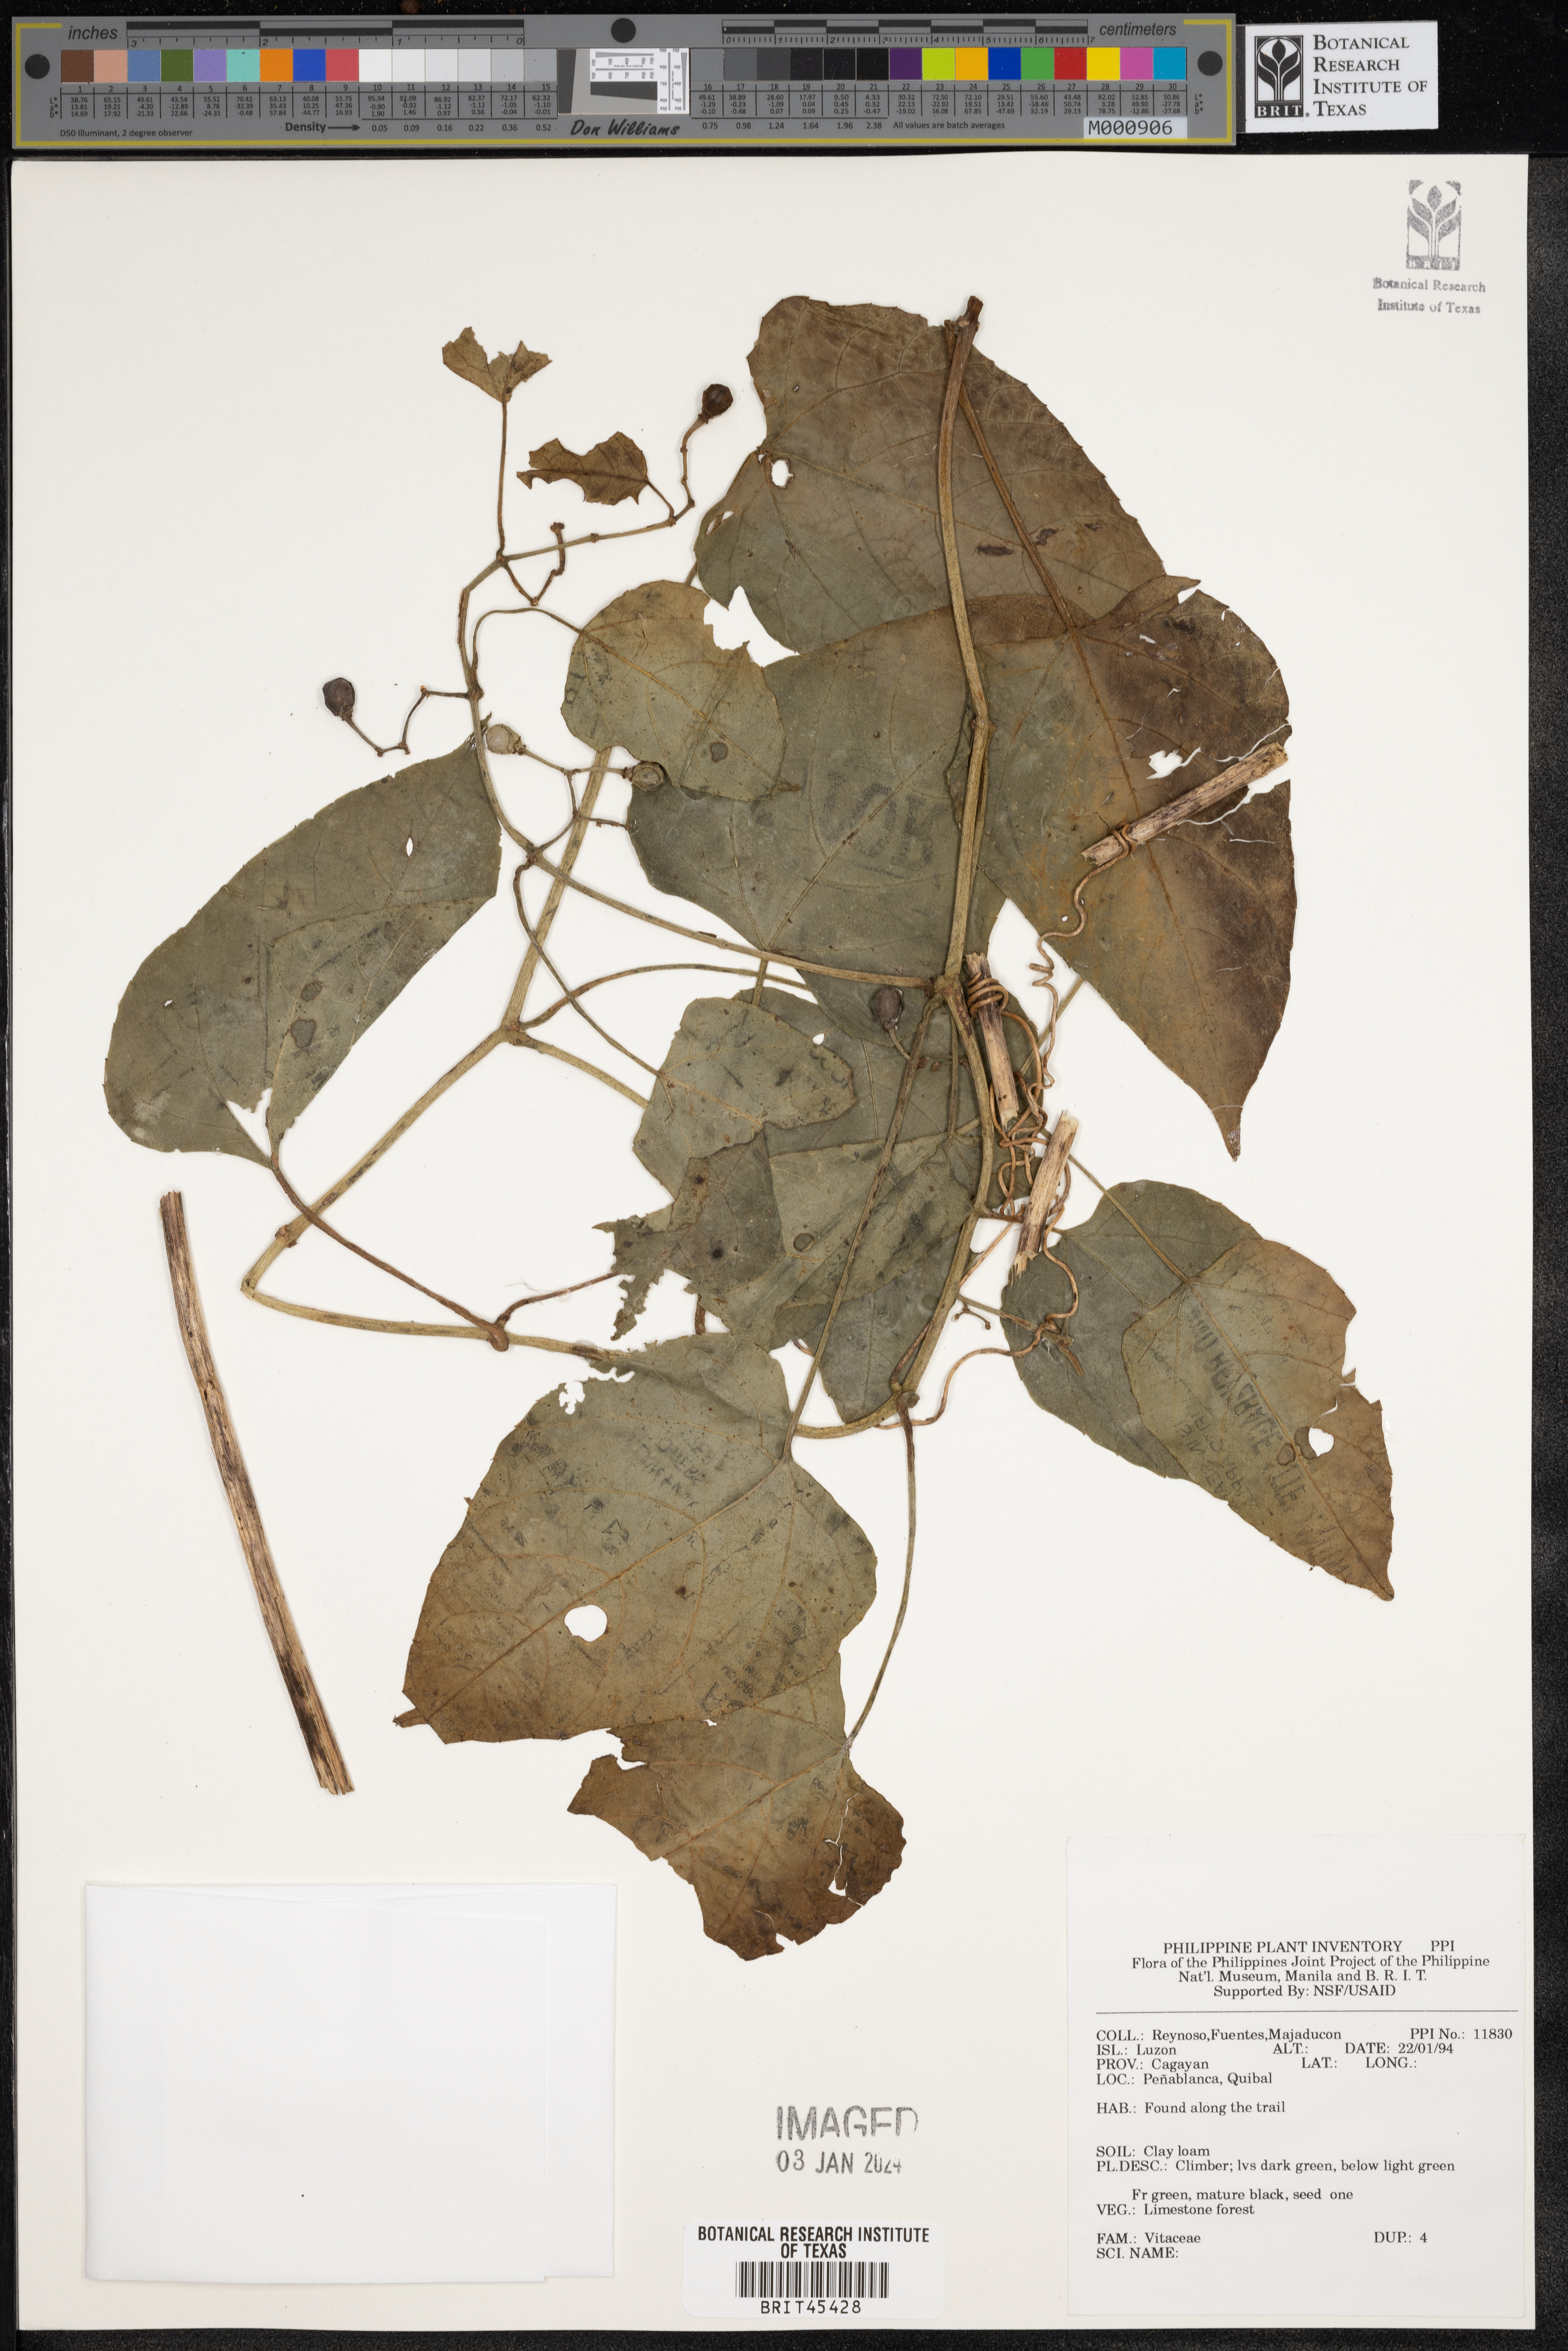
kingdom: Plantae
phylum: Tracheophyta
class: Magnoliopsida
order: Vitales
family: Vitaceae
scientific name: Vitaceae
